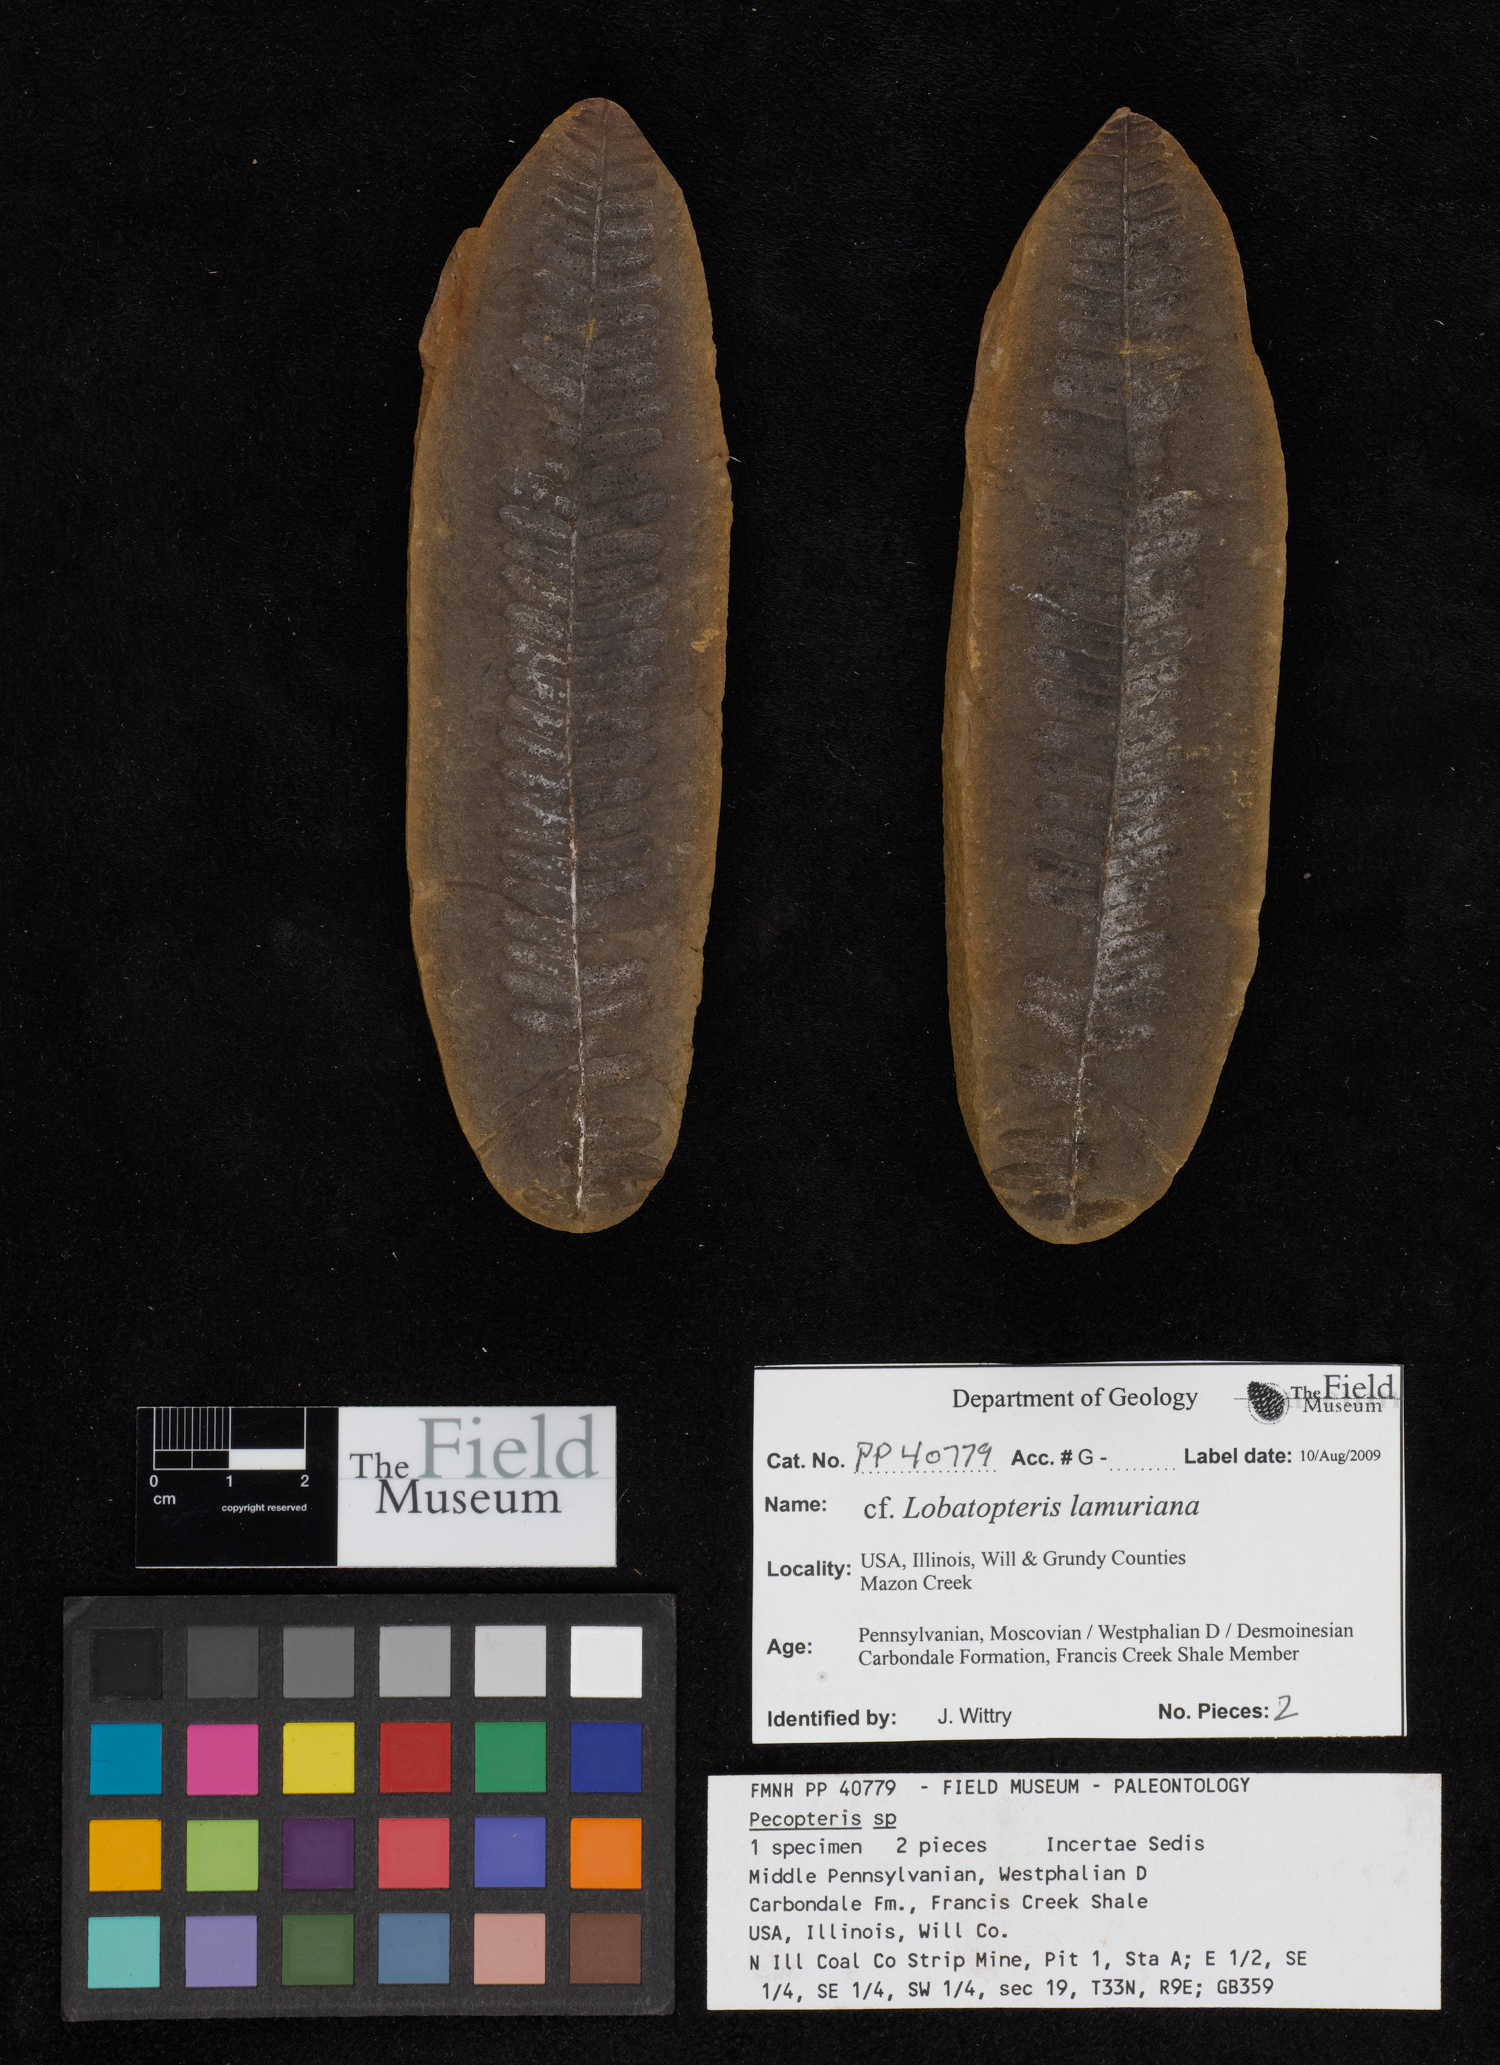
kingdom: Plantae
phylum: Tracheophyta
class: Polypodiopsida
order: Marattiales
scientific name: Marattiales
